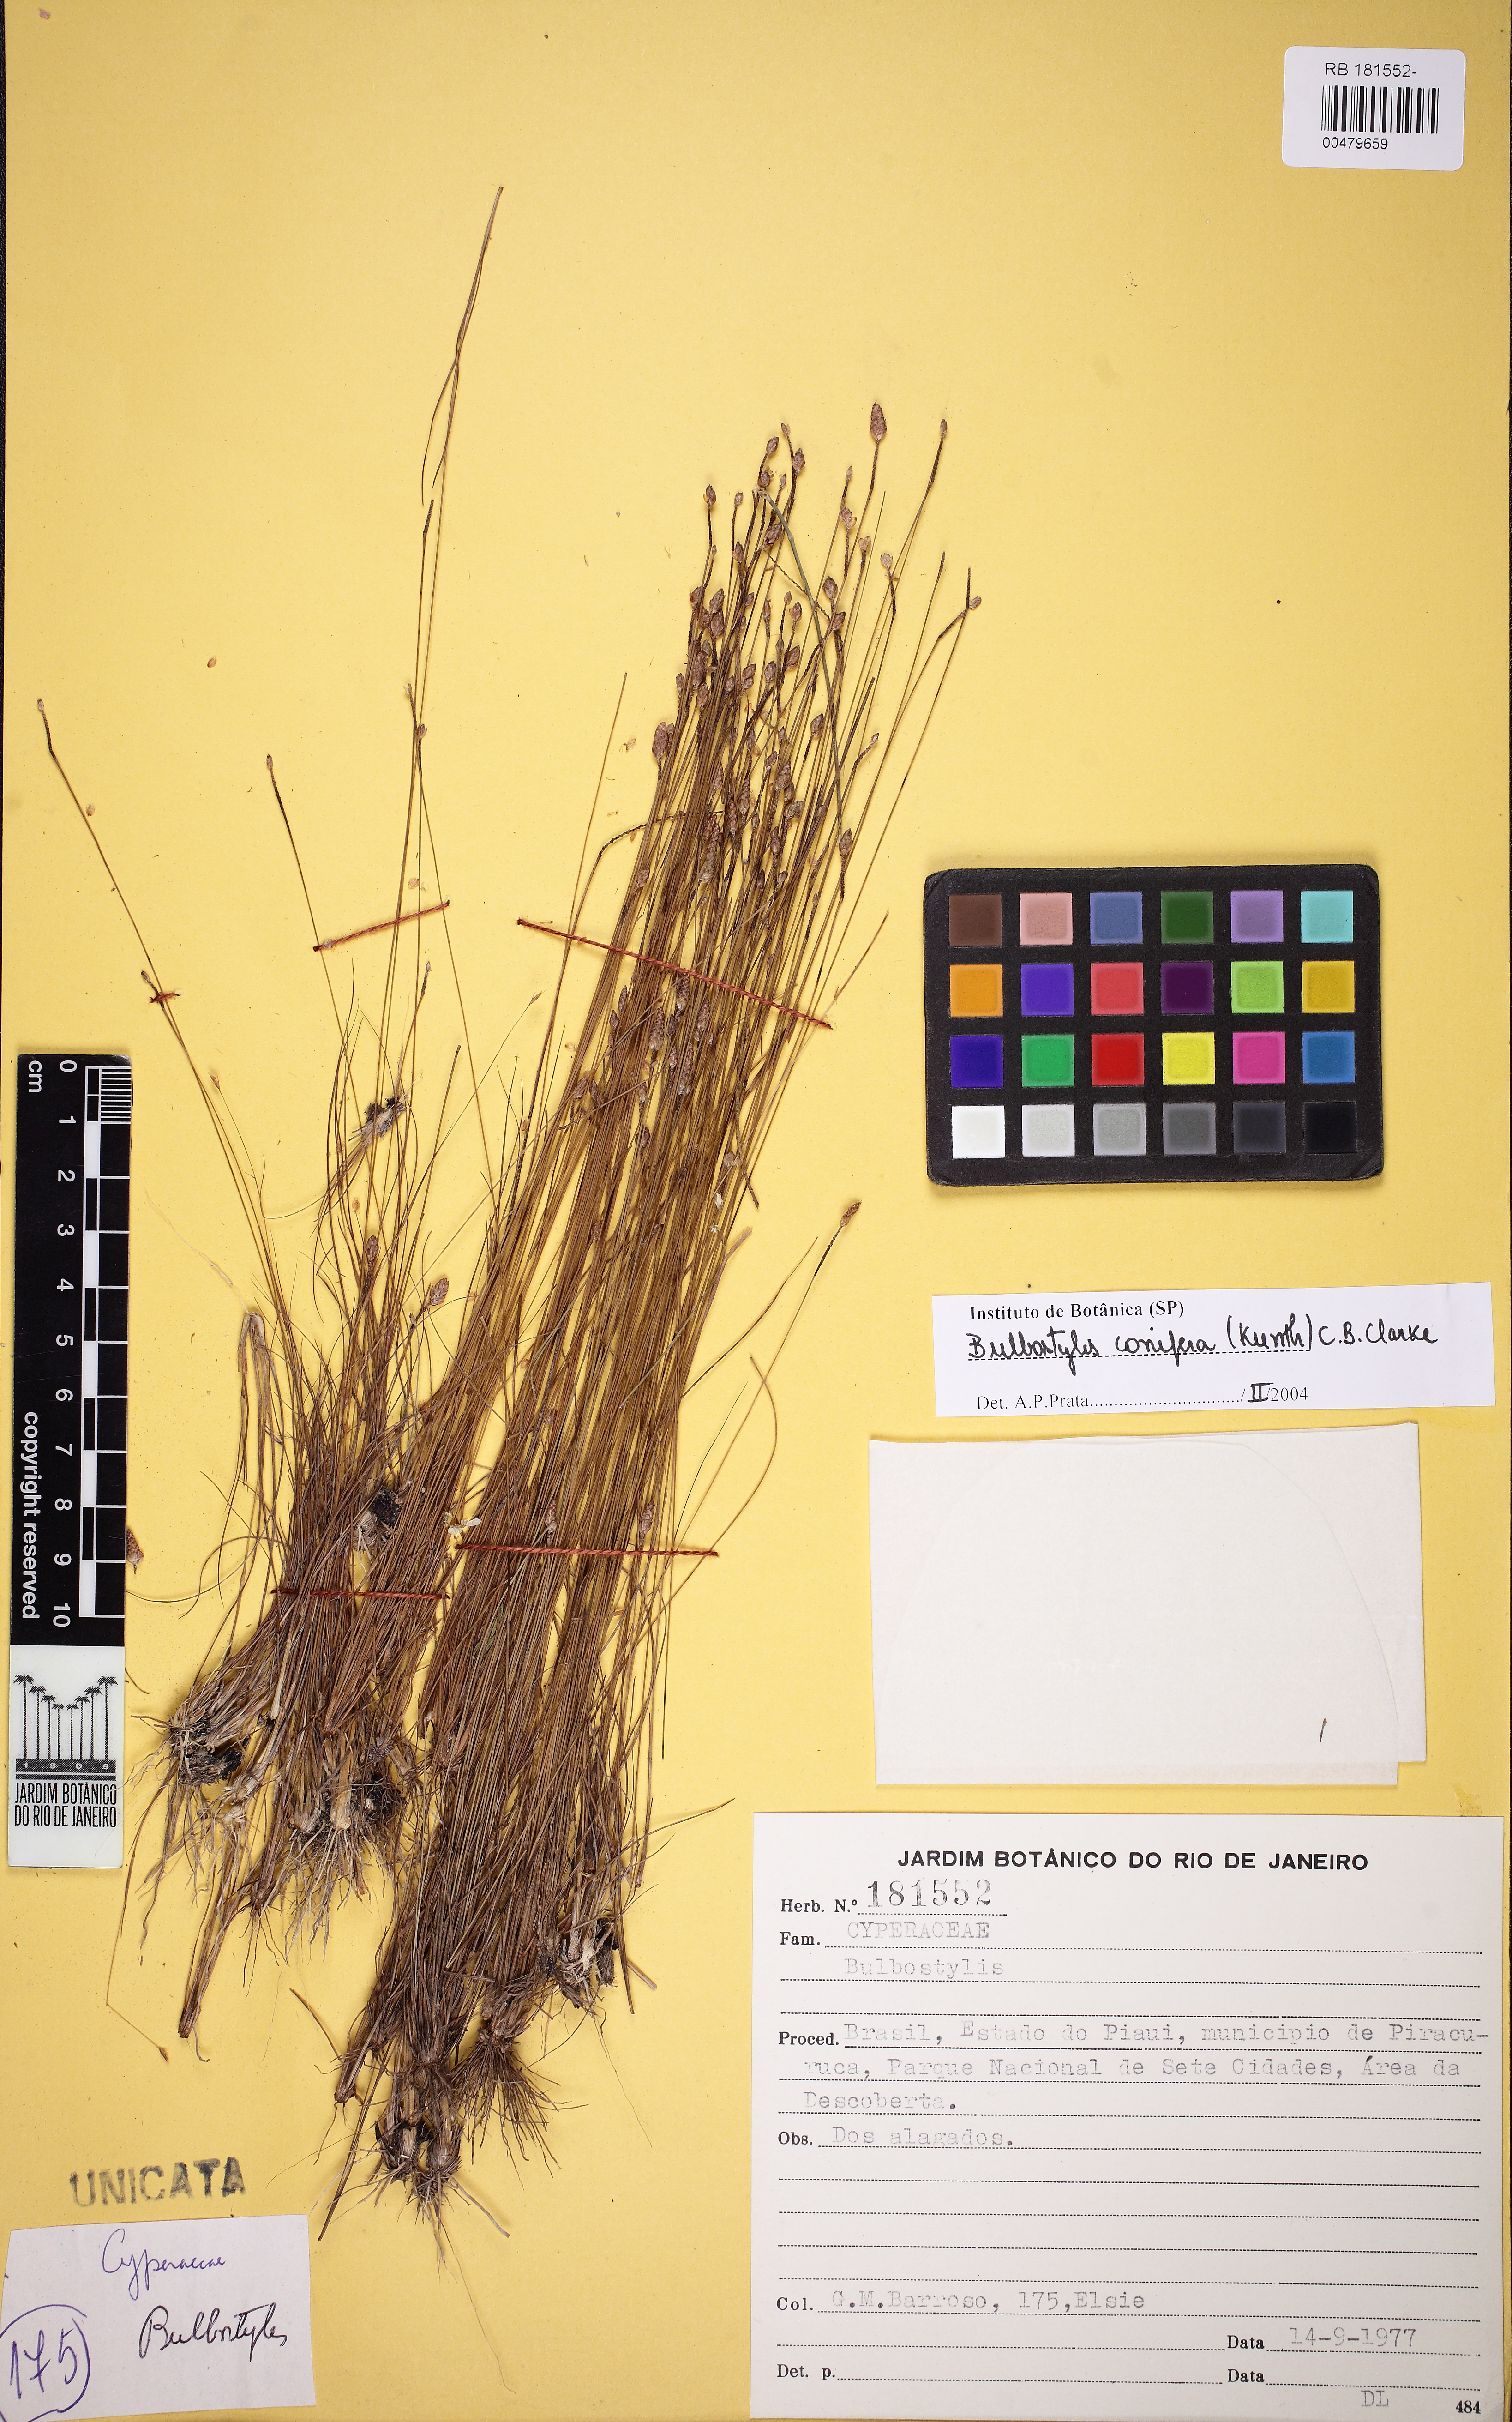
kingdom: Plantae
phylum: Tracheophyta
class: Liliopsida
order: Poales
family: Cyperaceae
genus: Bulbostylis
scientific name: Bulbostylis conifera
